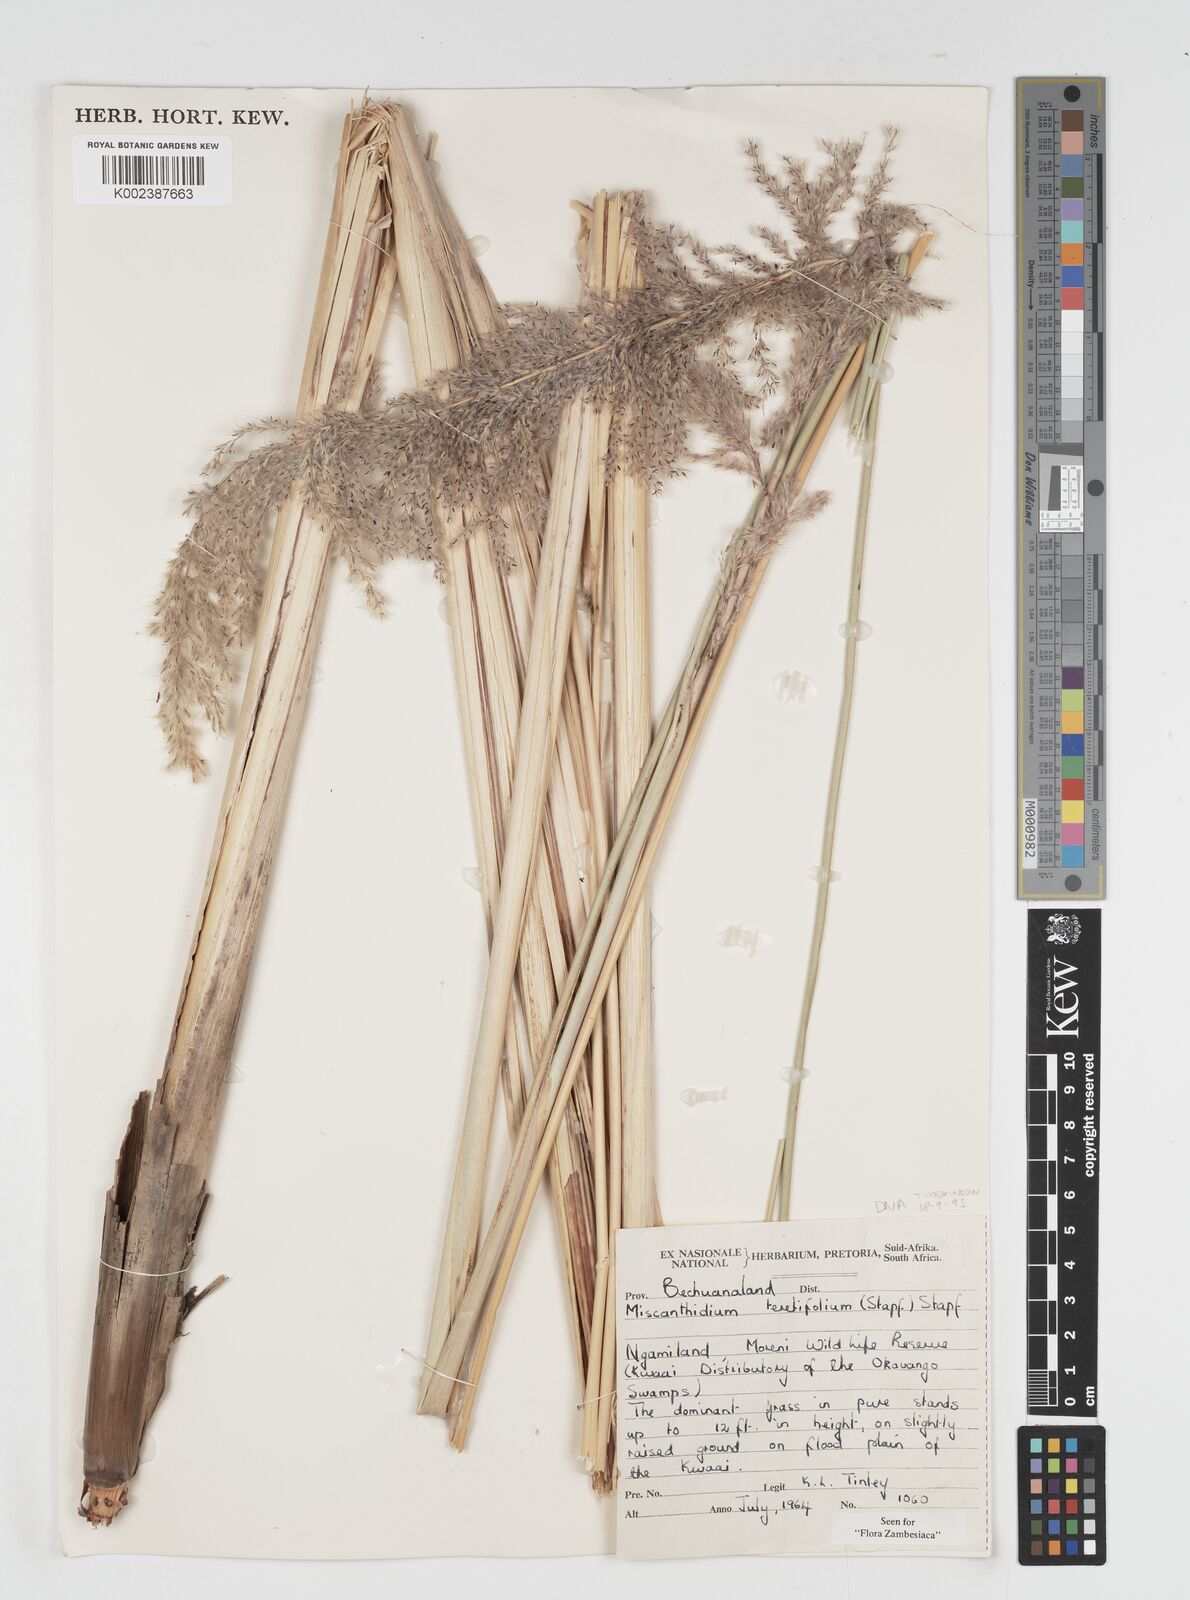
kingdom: Plantae
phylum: Tracheophyta
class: Liliopsida
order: Poales
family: Poaceae
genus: Miscanthidium
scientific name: Miscanthidium junceum
